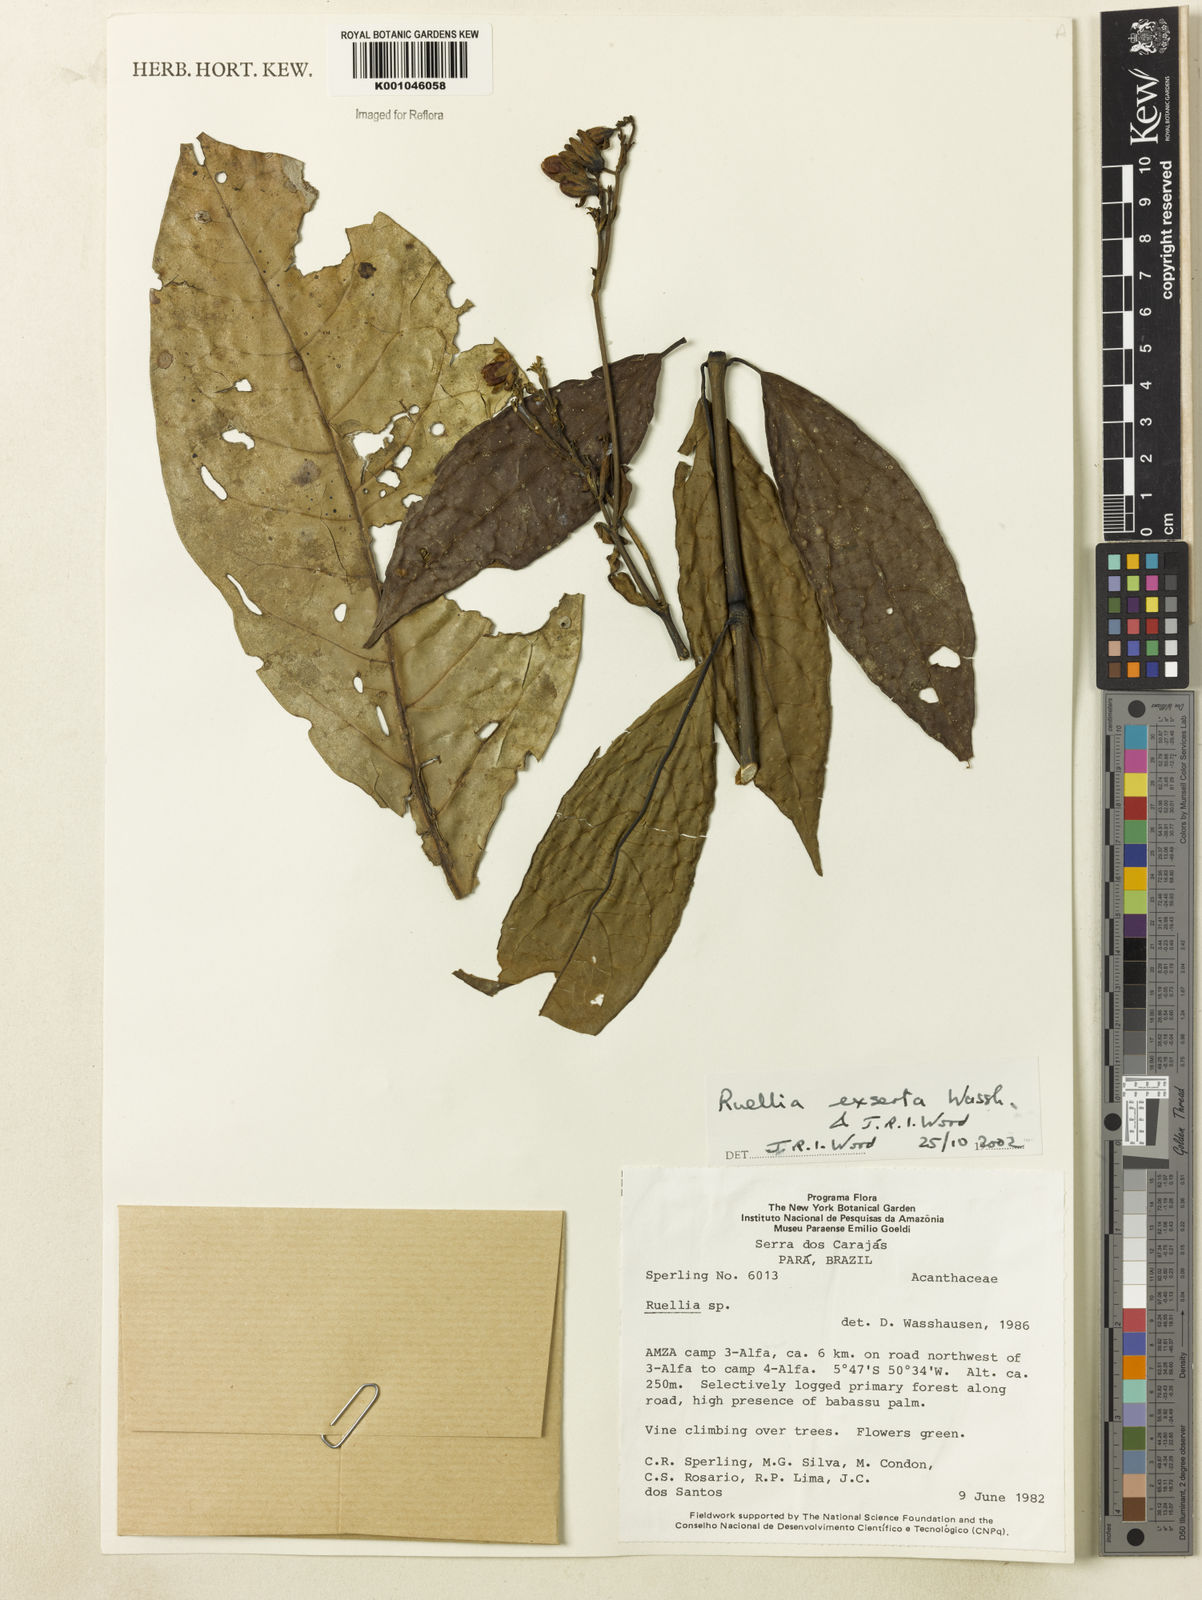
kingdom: Plantae
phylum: Tracheophyta
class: Magnoliopsida
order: Lamiales
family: Acanthaceae
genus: Ruellia
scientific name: Ruellia exserta
